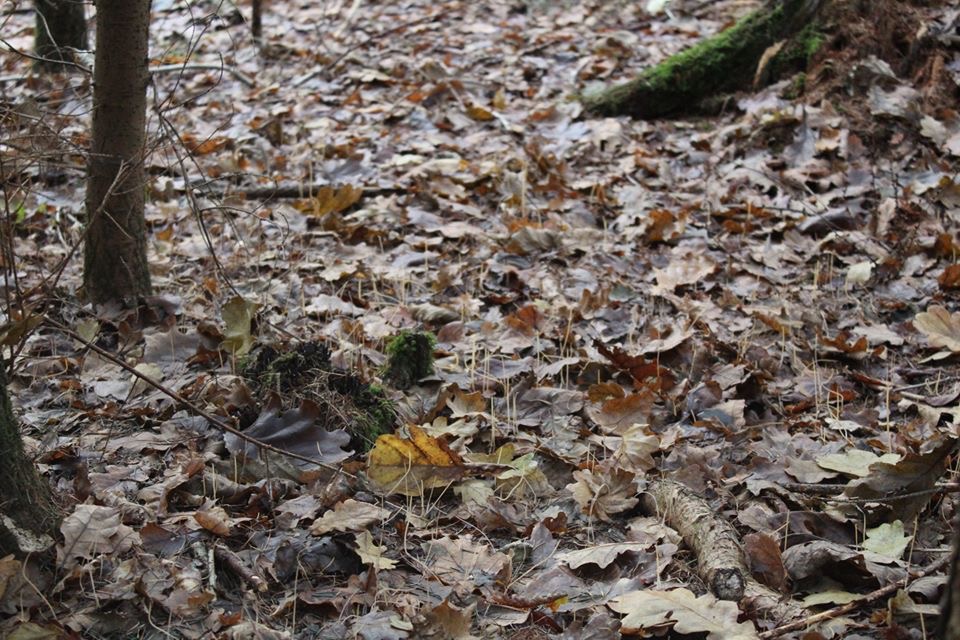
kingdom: Fungi
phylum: Basidiomycota
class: Agaricomycetes
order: Agaricales
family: Typhulaceae
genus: Typhula
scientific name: Typhula juncea
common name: trådagtig rørkølle
